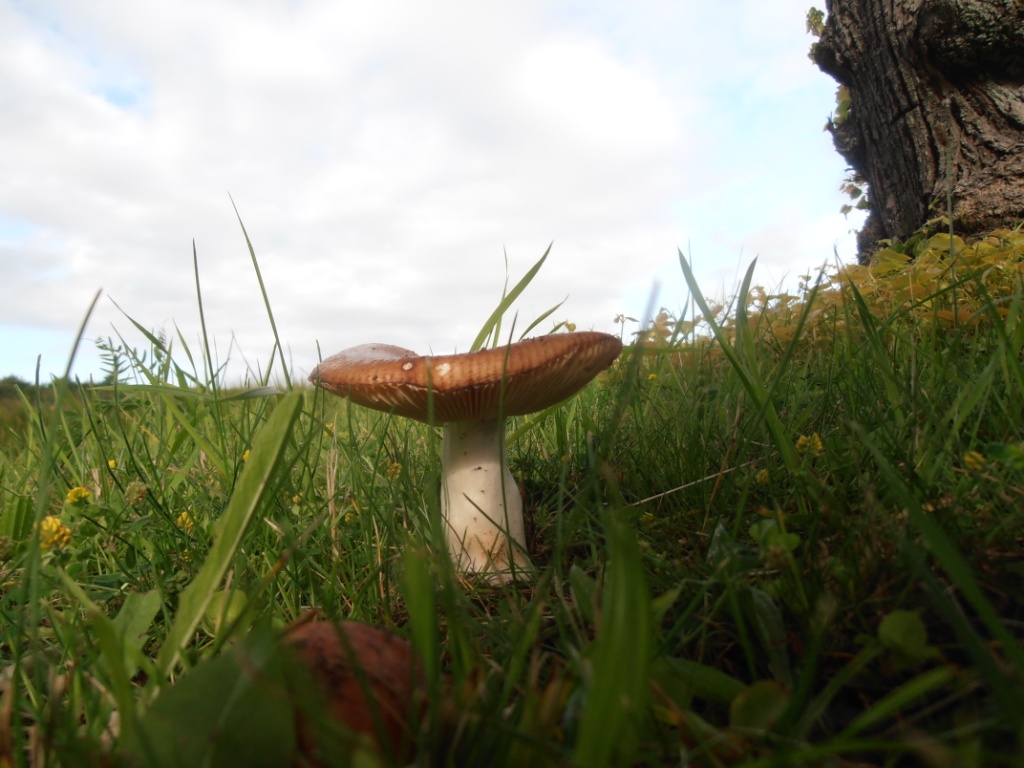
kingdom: Fungi
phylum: Basidiomycota
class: Agaricomycetes
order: Russulales
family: Russulaceae
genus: Russula
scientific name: Russula cuprea
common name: kanel-skørhat
